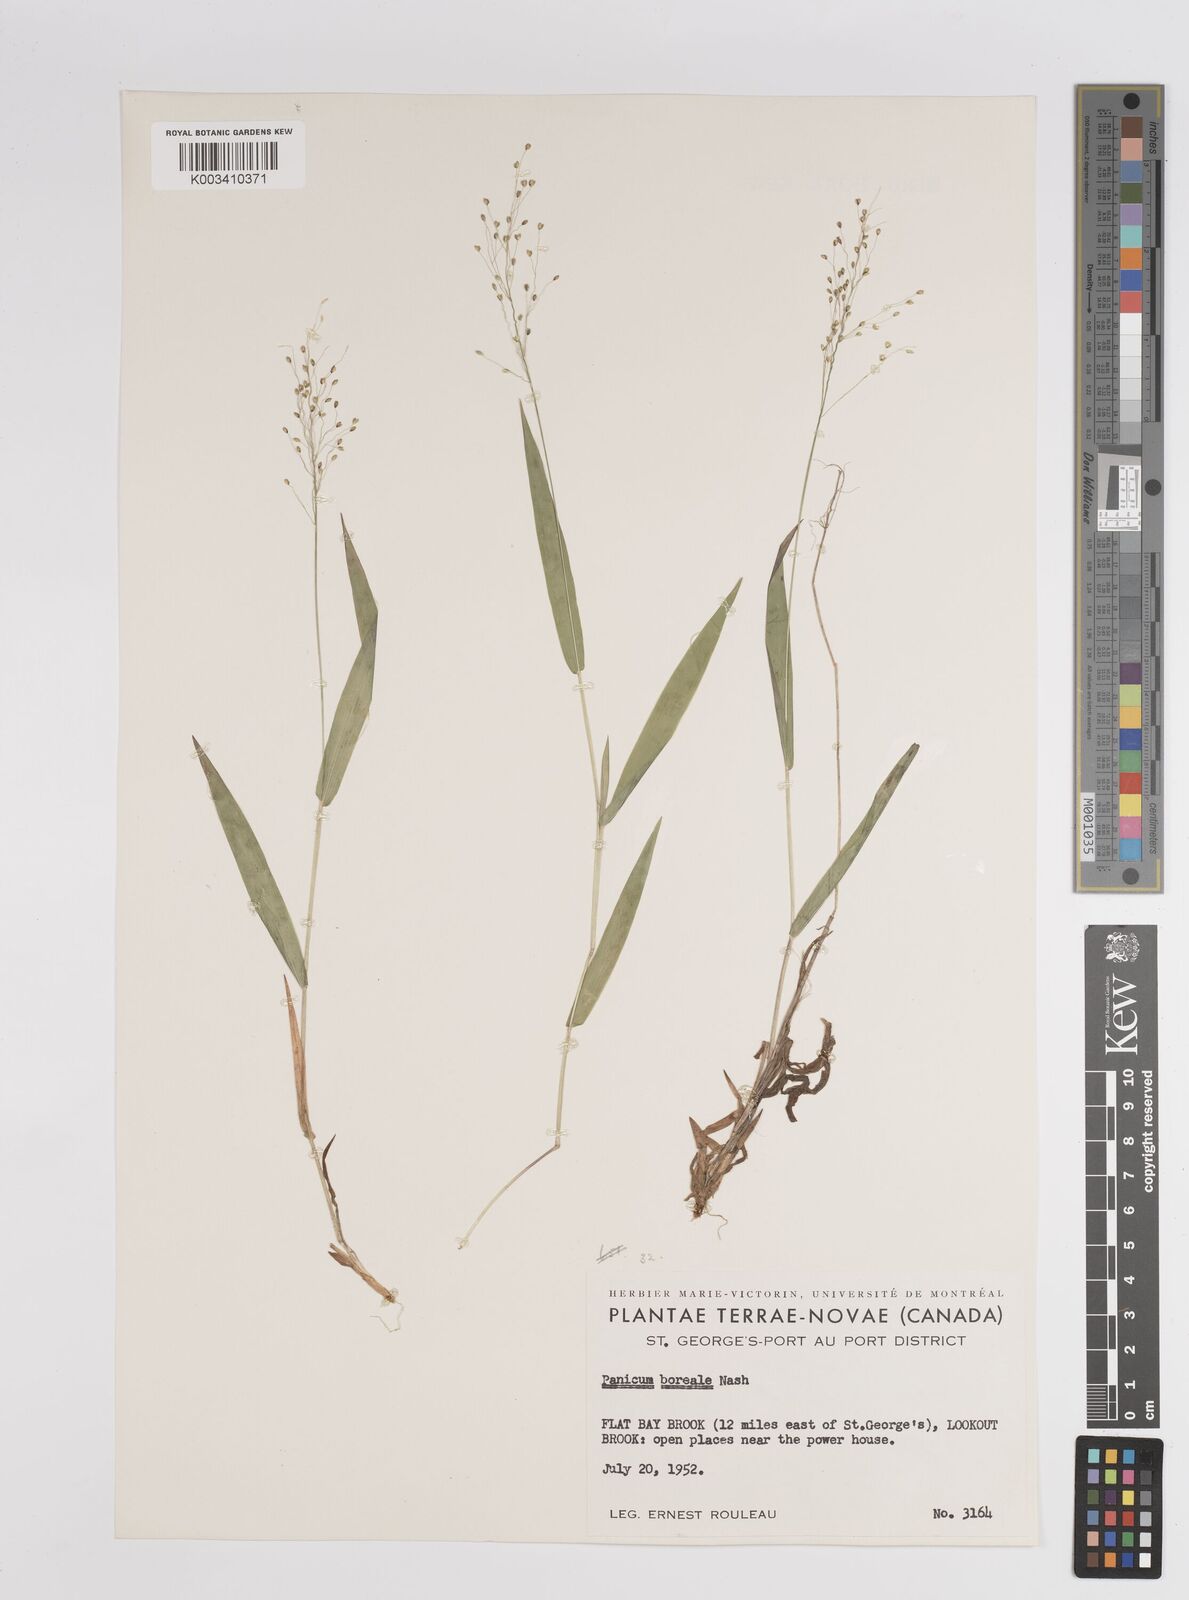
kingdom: Plantae
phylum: Tracheophyta
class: Liliopsida
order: Poales
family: Poaceae
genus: Dichanthelium
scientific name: Dichanthelium boreale
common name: Northern panicgrass
